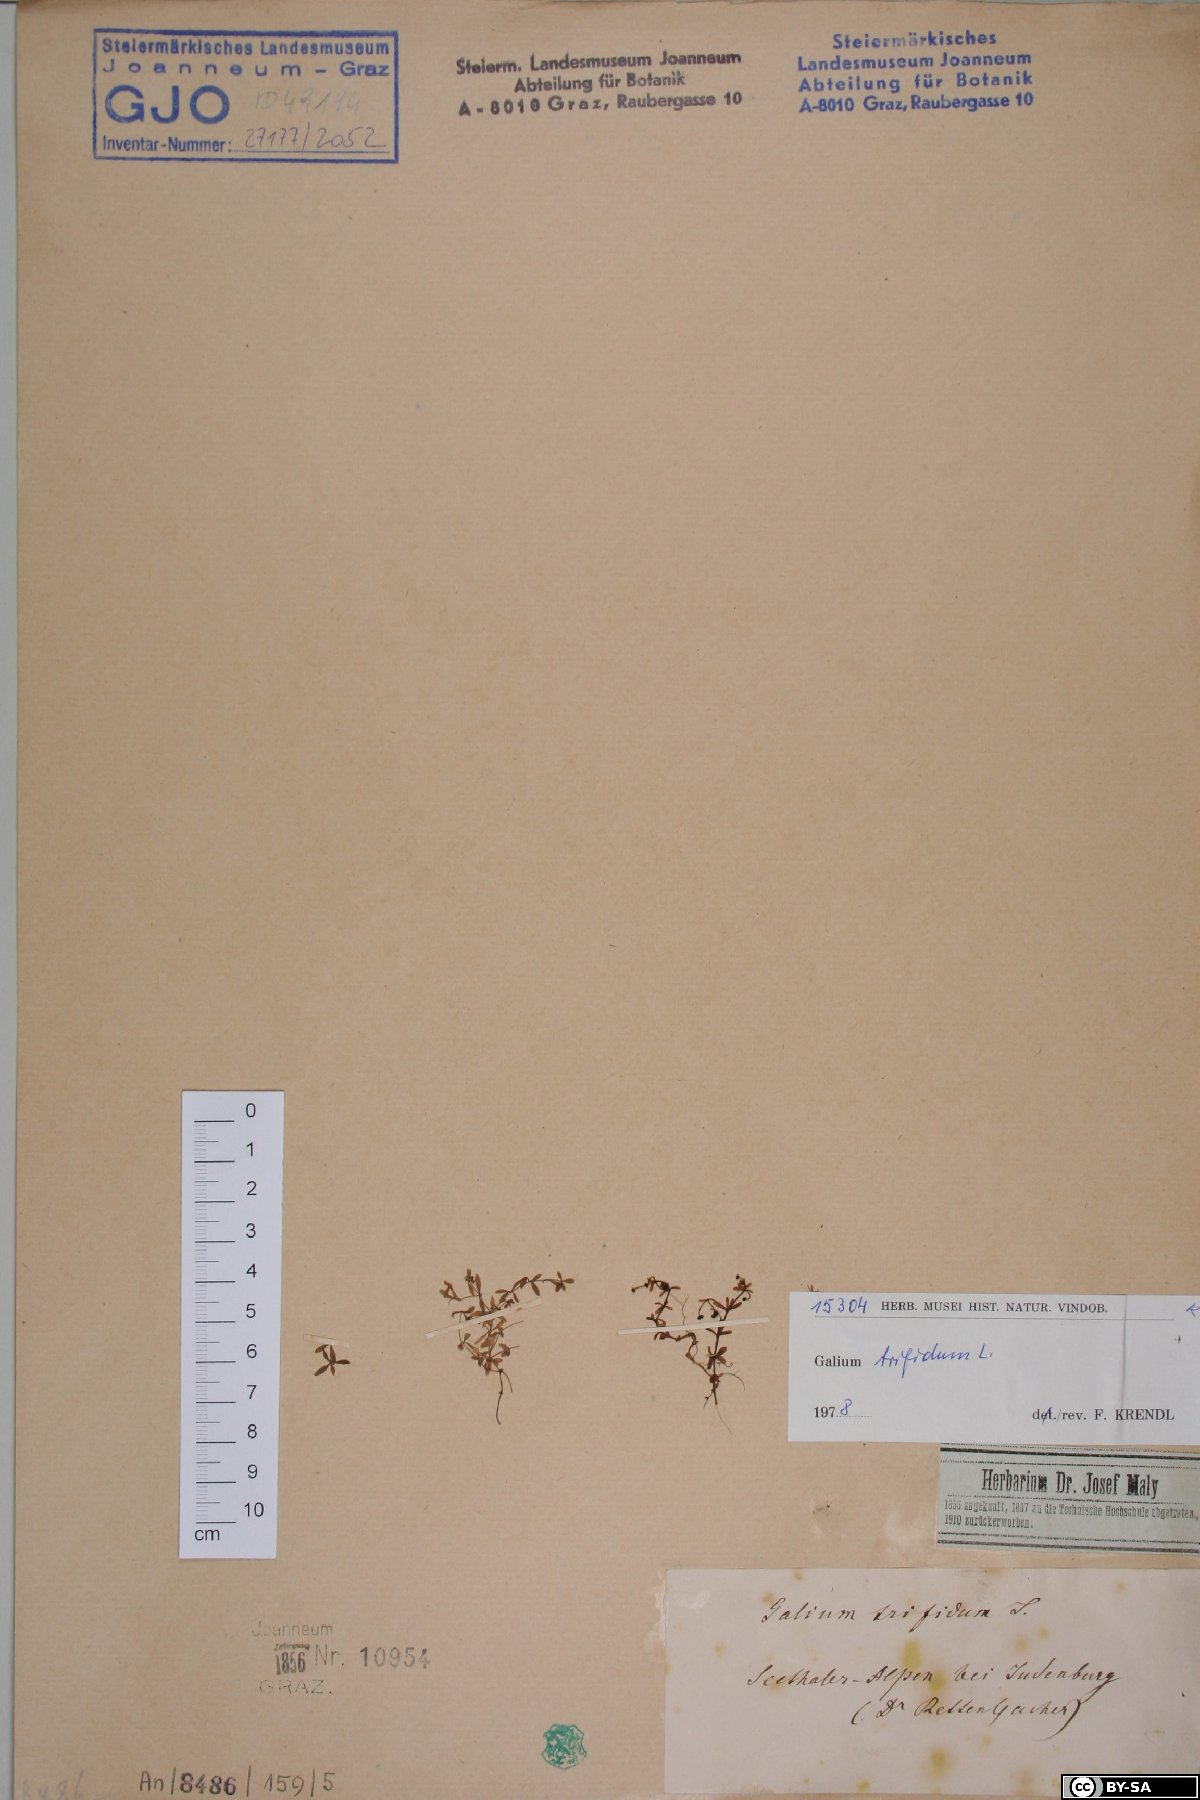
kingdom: Plantae
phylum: Tracheophyta
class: Magnoliopsida
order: Gentianales
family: Rubiaceae
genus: Galium
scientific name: Galium trifidum
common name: Small bedstraw
